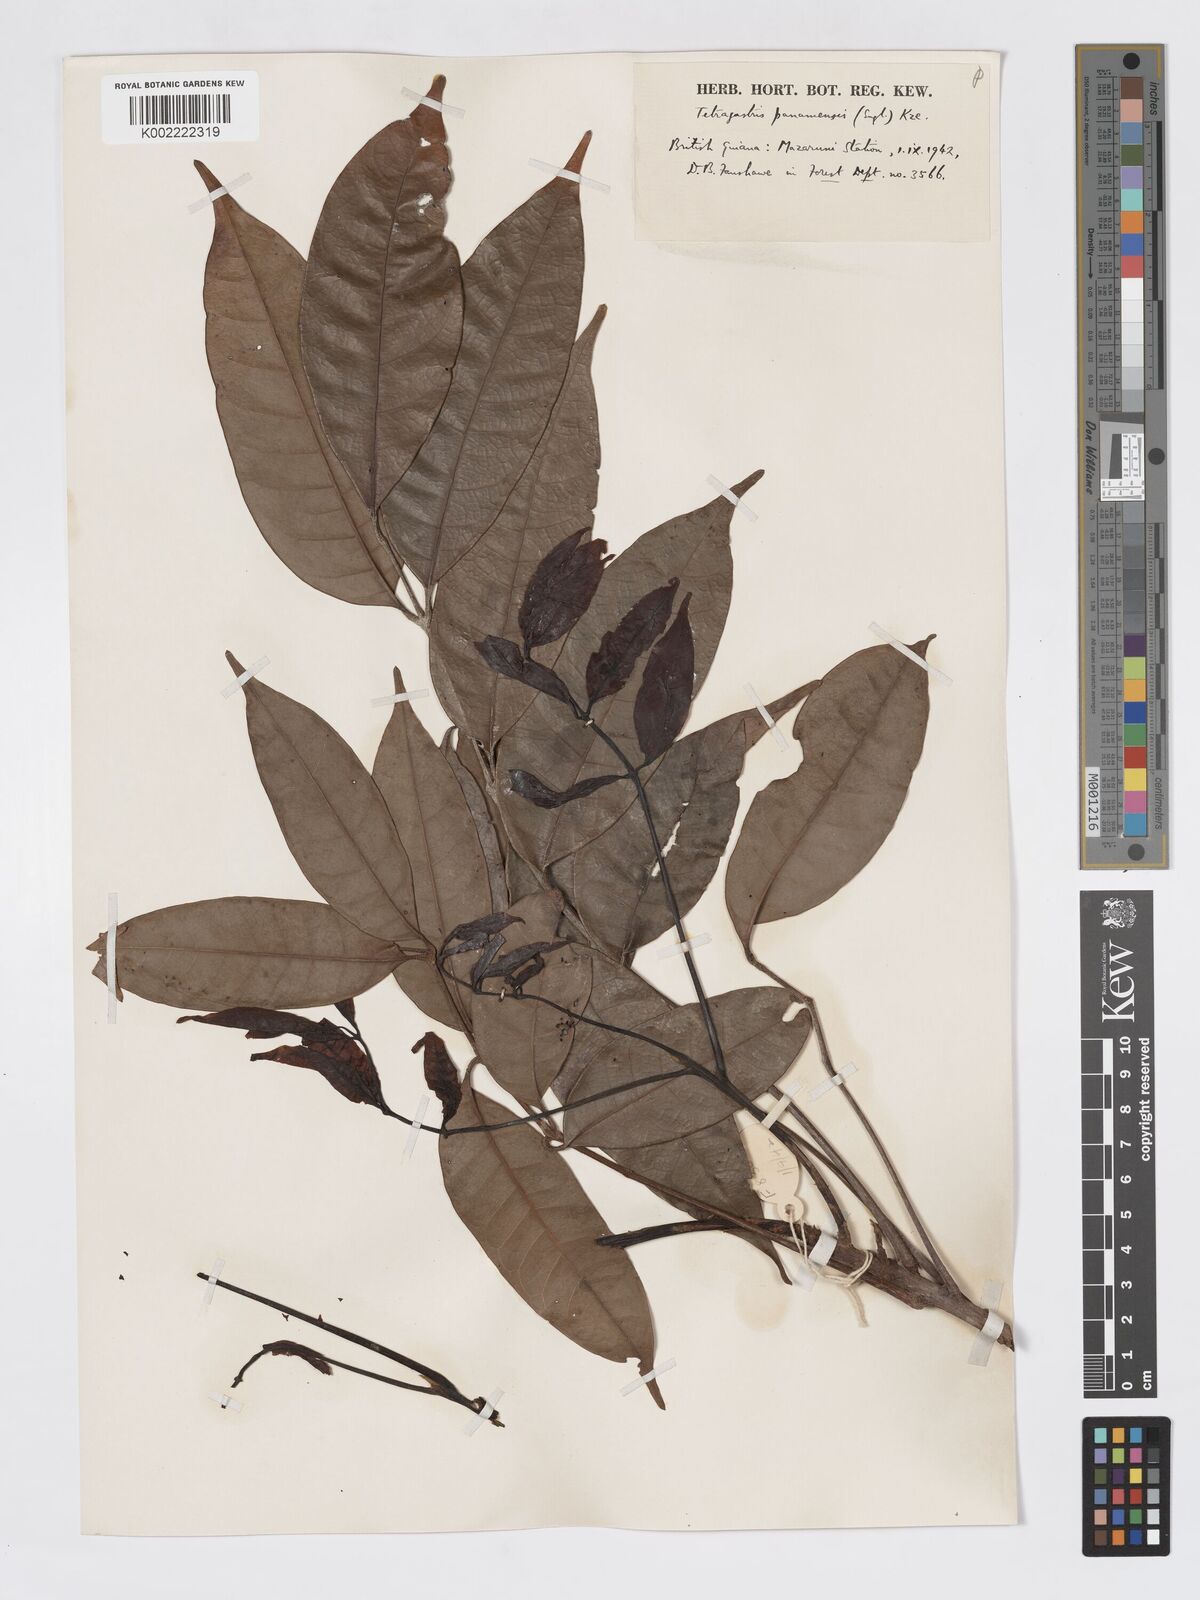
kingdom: Plantae
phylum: Tracheophyta
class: Magnoliopsida
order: Sapindales
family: Burseraceae
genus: Tetragastris
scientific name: Tetragastris panamensis
